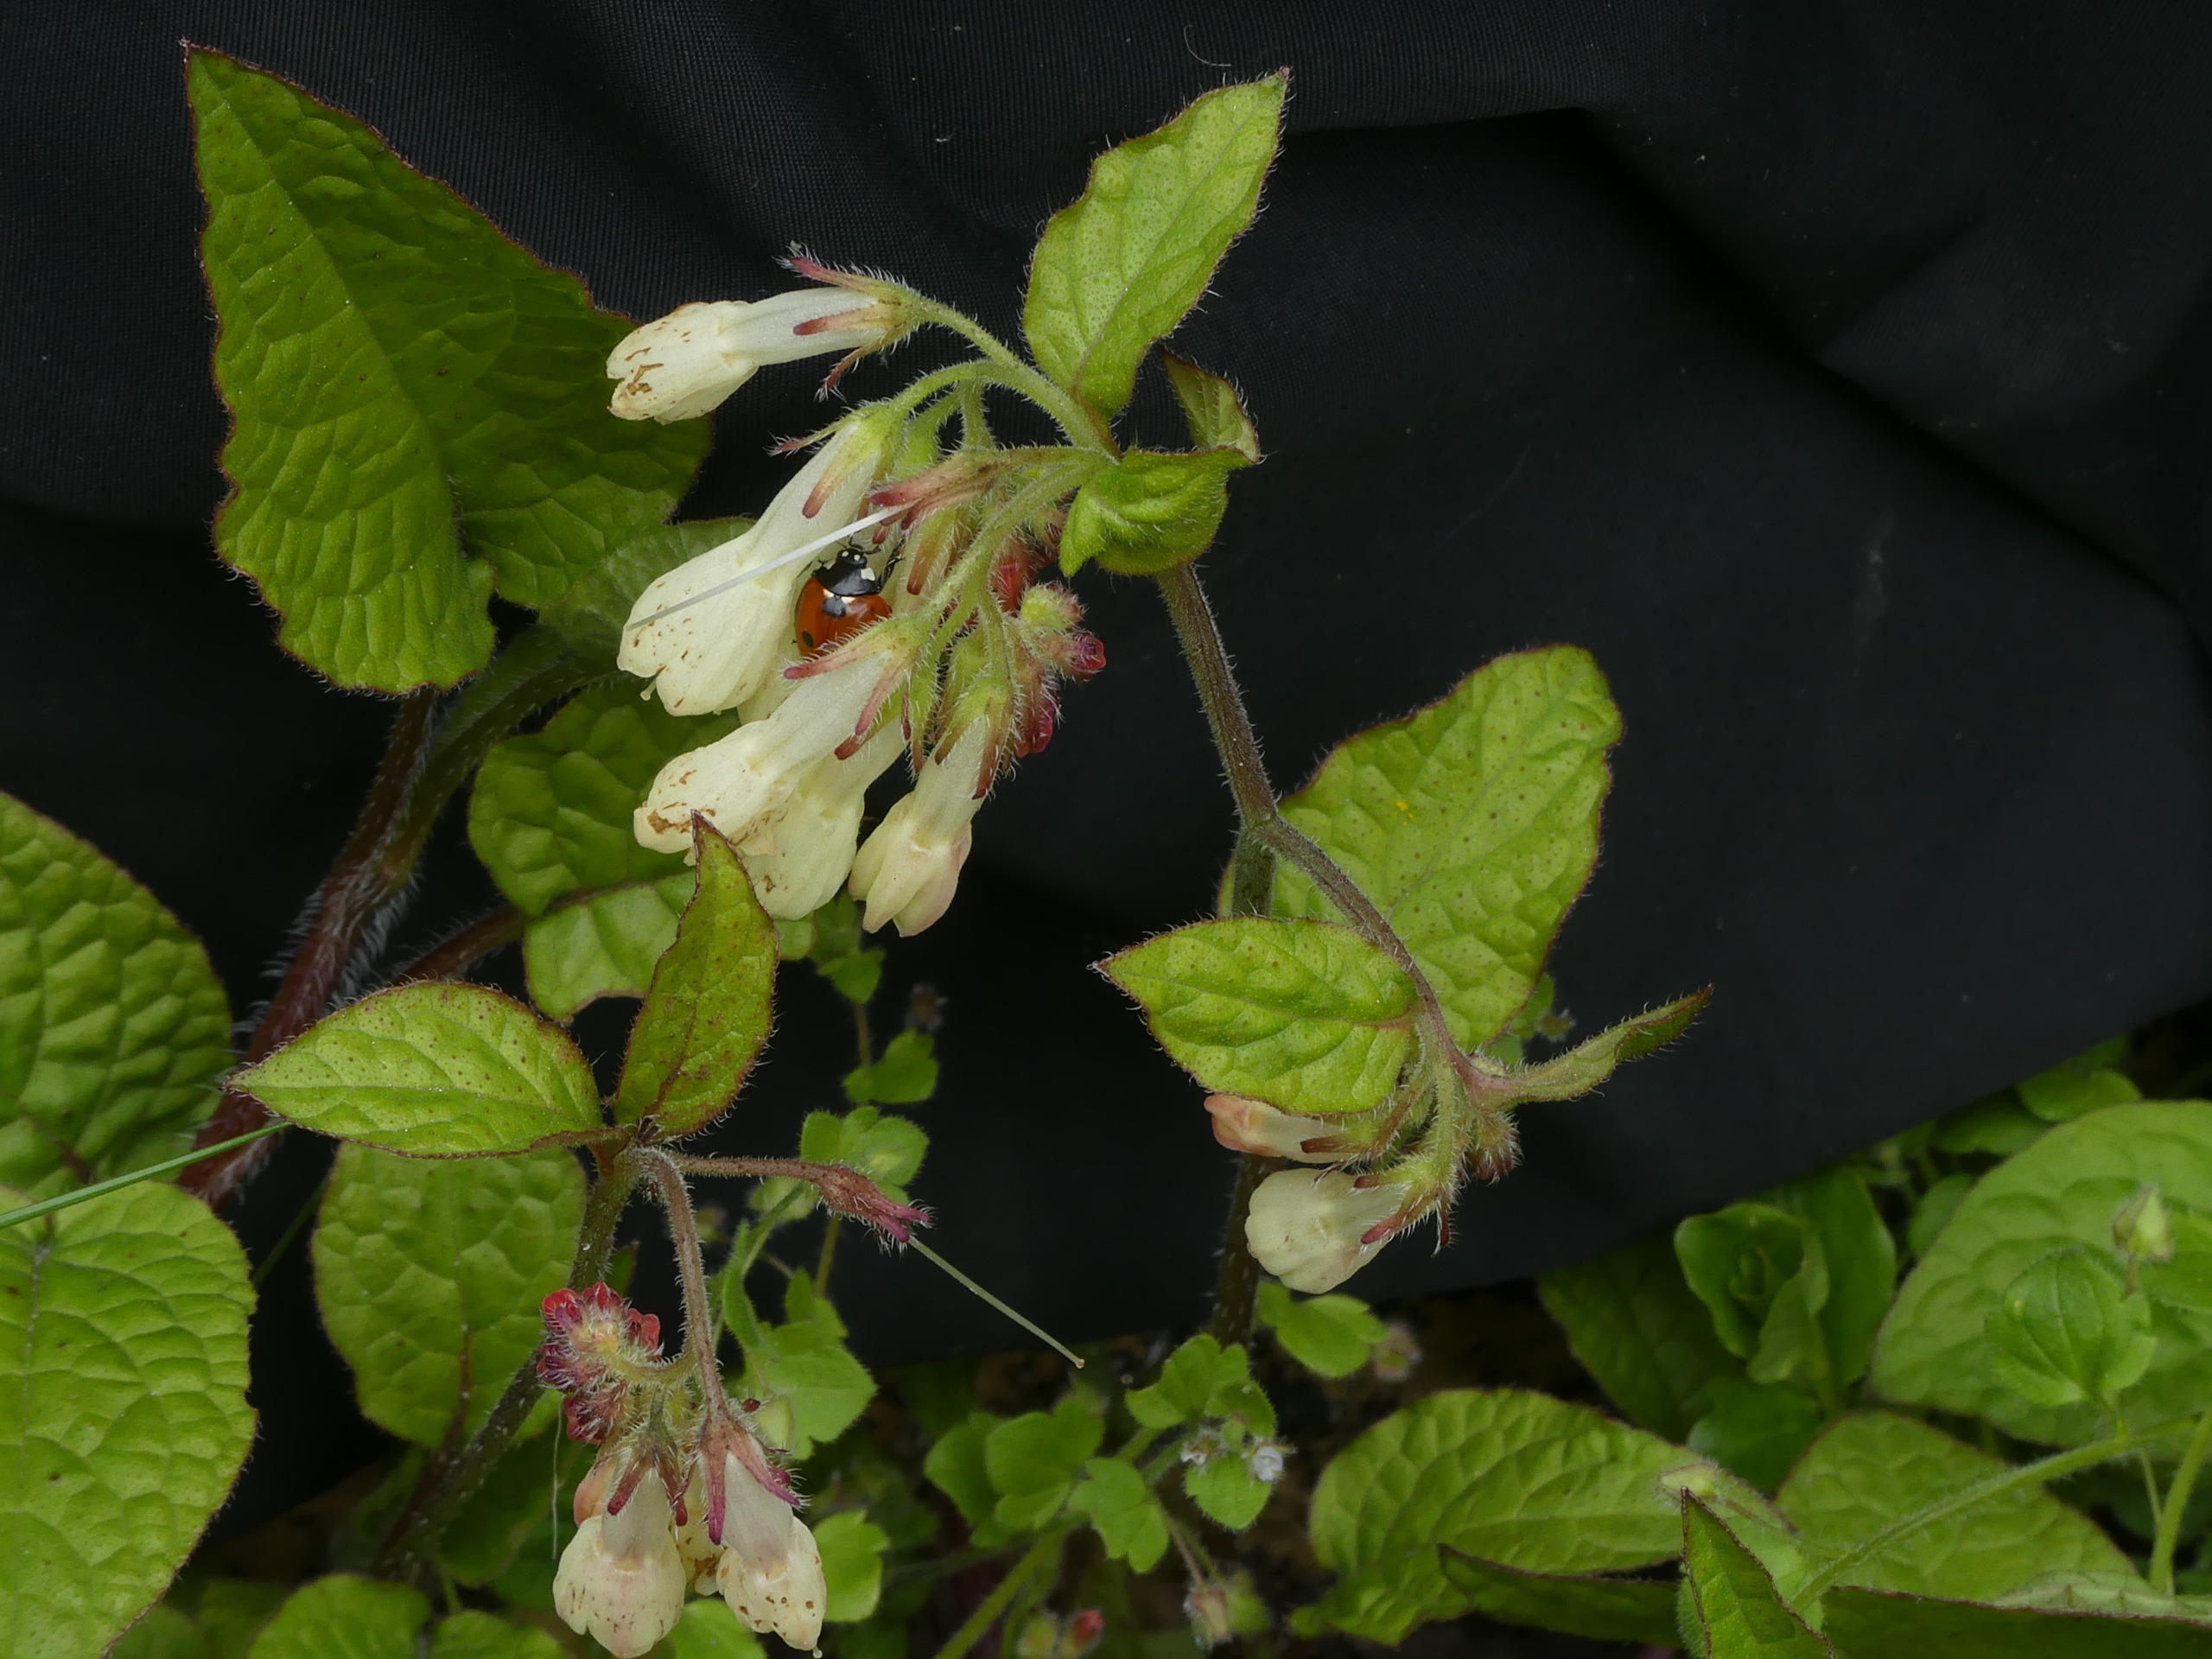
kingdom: Plantae
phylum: Tracheophyta
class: Magnoliopsida
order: Boraginales
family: Boraginaceae
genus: Symphytum
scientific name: Symphytum grandiflorum
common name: Storblomstret kulsukker
